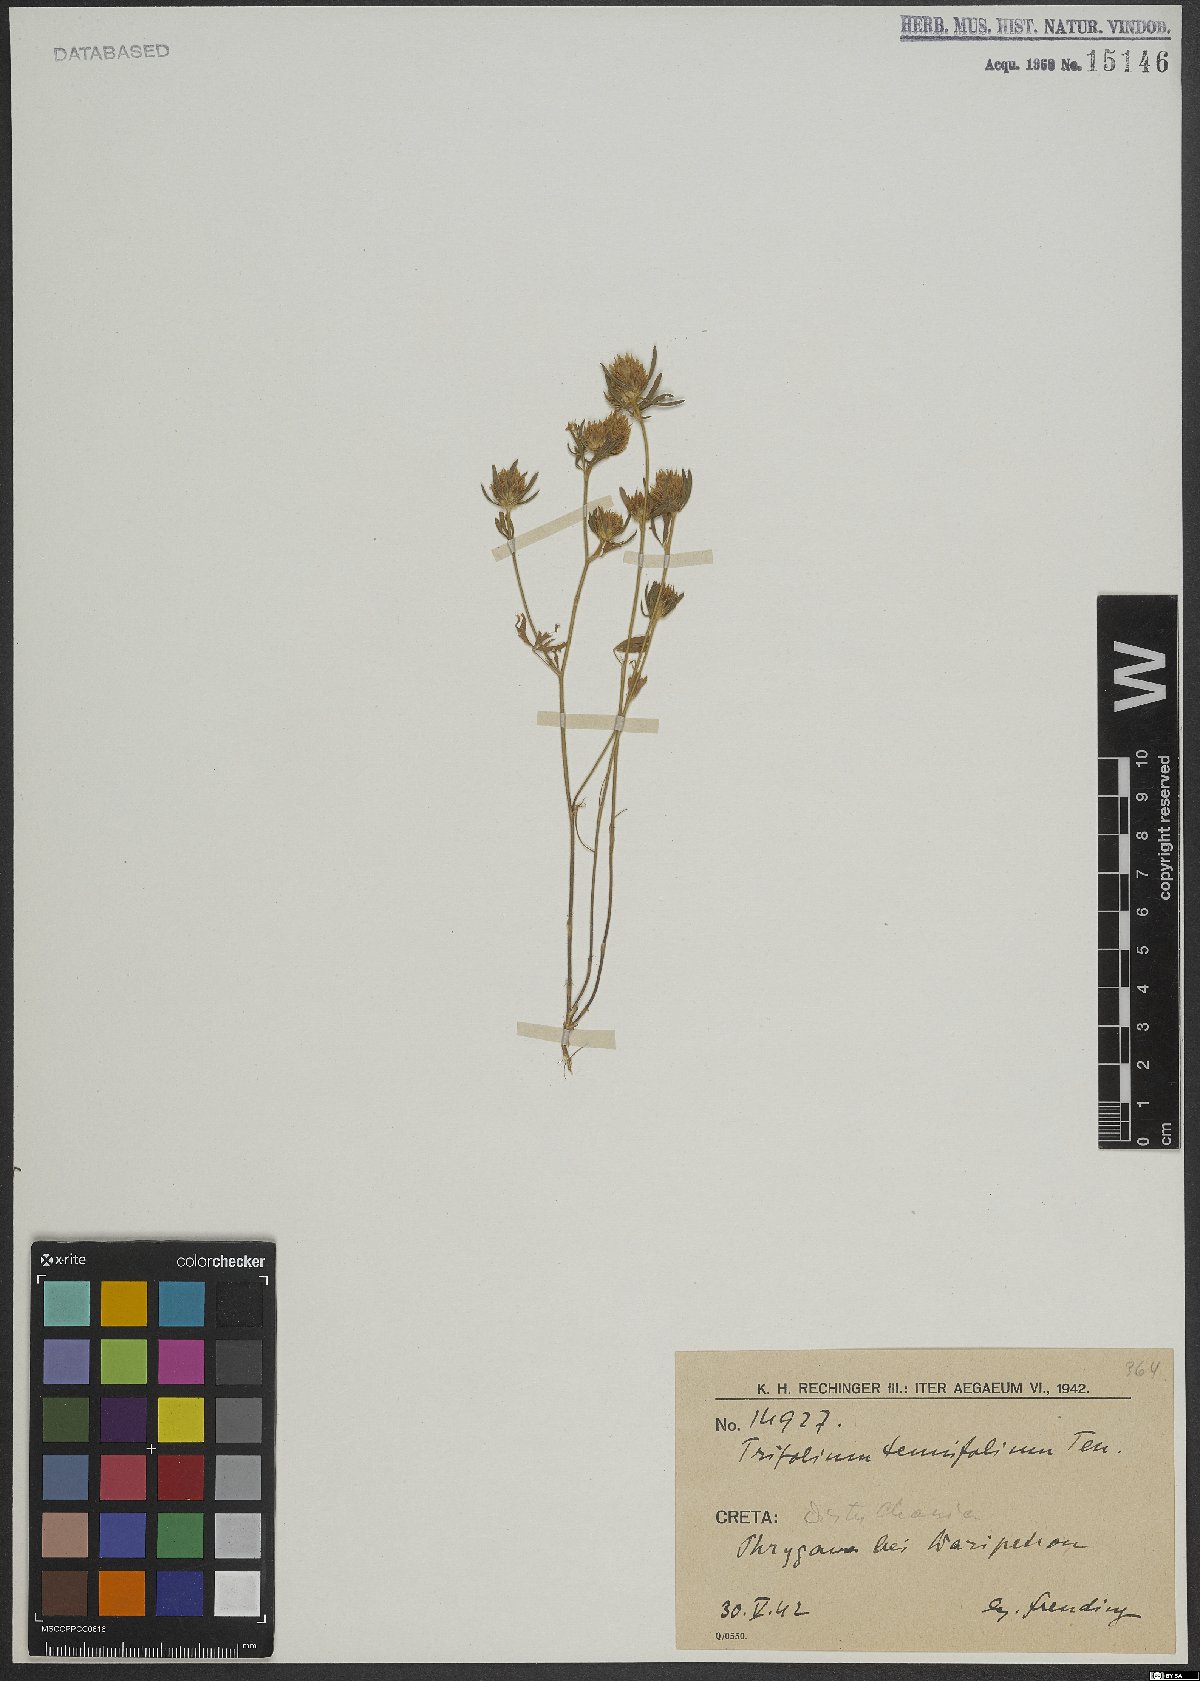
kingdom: Plantae
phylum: Tracheophyta
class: Magnoliopsida
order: Fabales
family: Fabaceae
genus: Trifolium
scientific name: Trifolium tenuifolium
